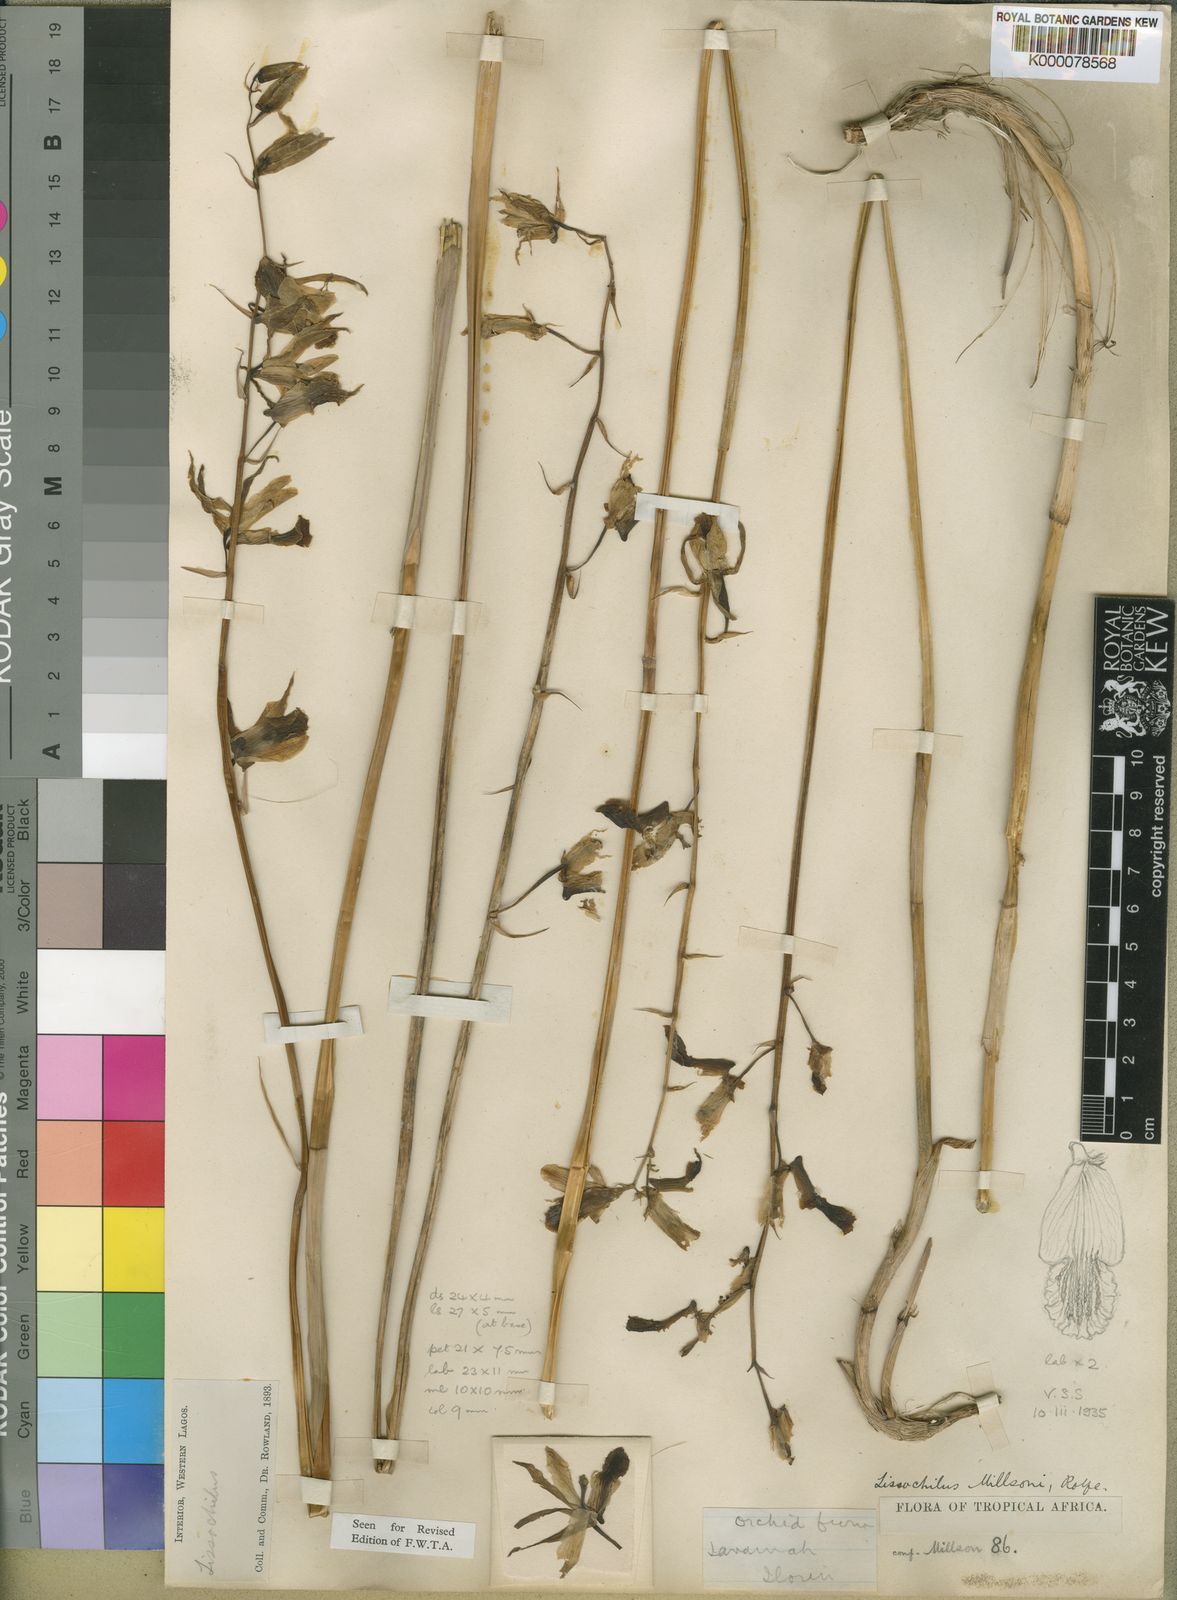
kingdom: Plantae
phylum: Tracheophyta
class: Liliopsida
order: Asparagales
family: Orchidaceae
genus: Eulophia
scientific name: Eulophia flavopurpurea
